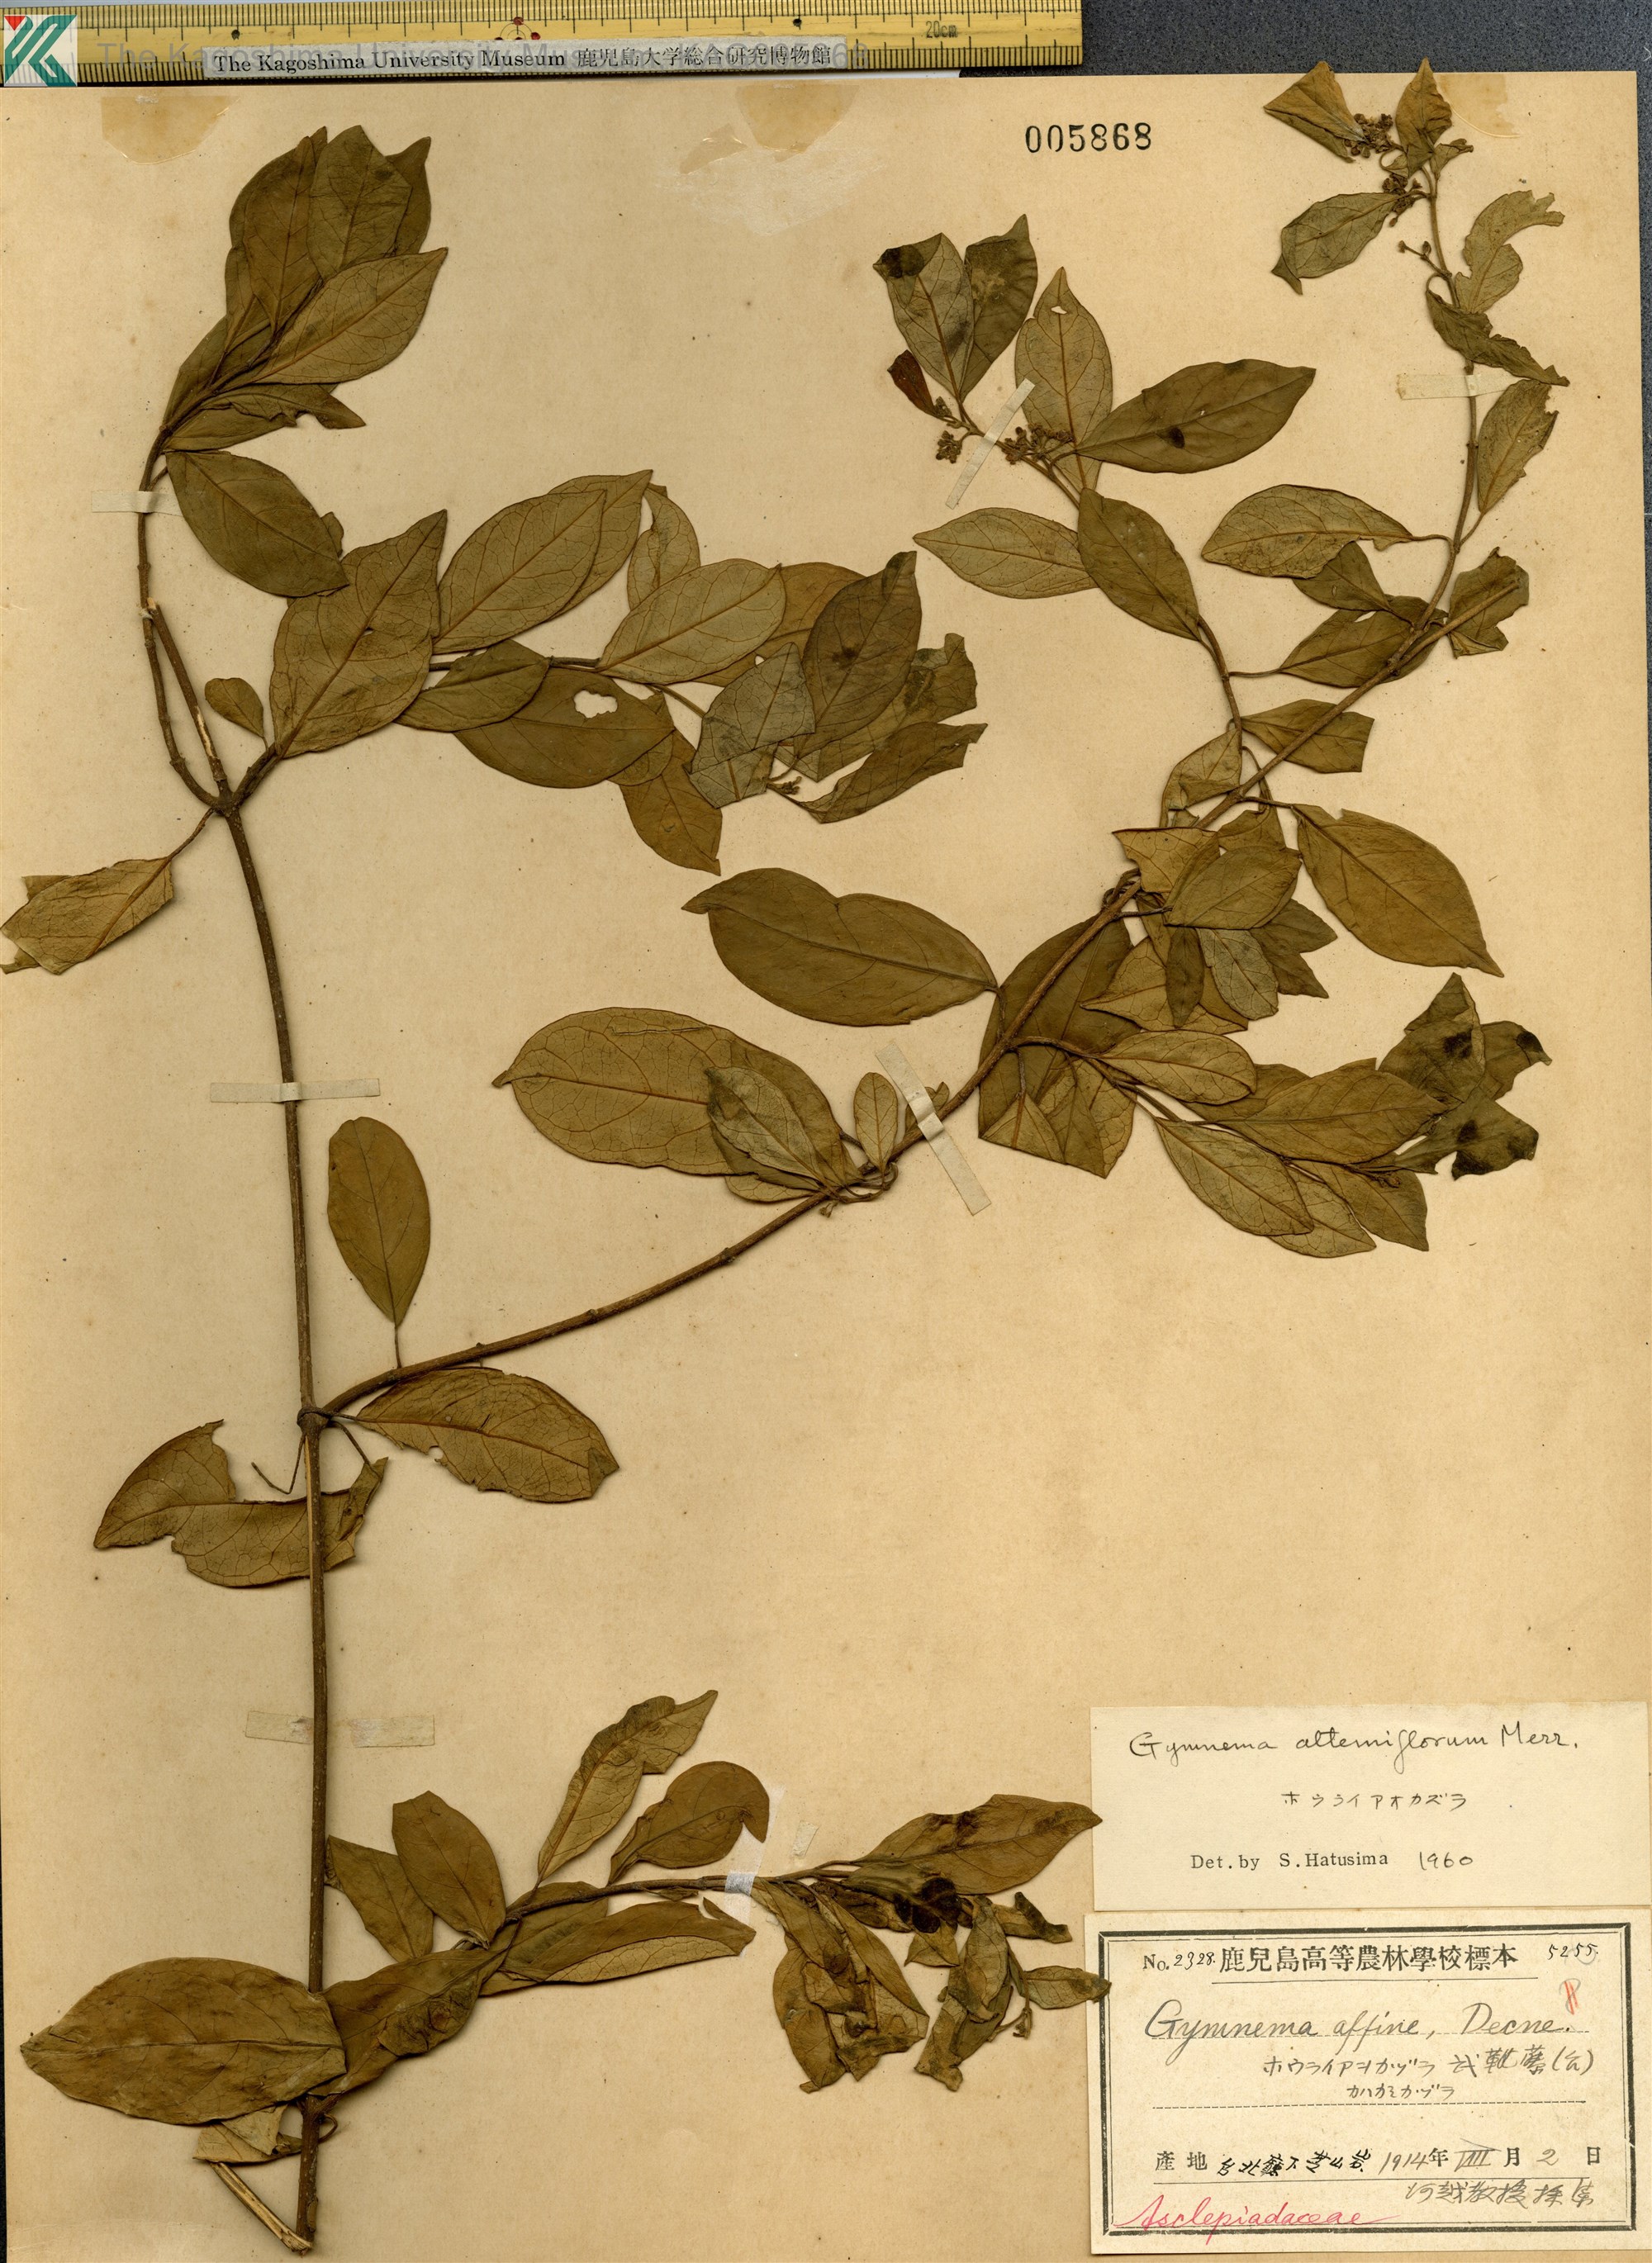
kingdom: Plantae
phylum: Tracheophyta
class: Magnoliopsida
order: Gentianales
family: Apocynaceae
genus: Gymnema
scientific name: Gymnema sylvestre
